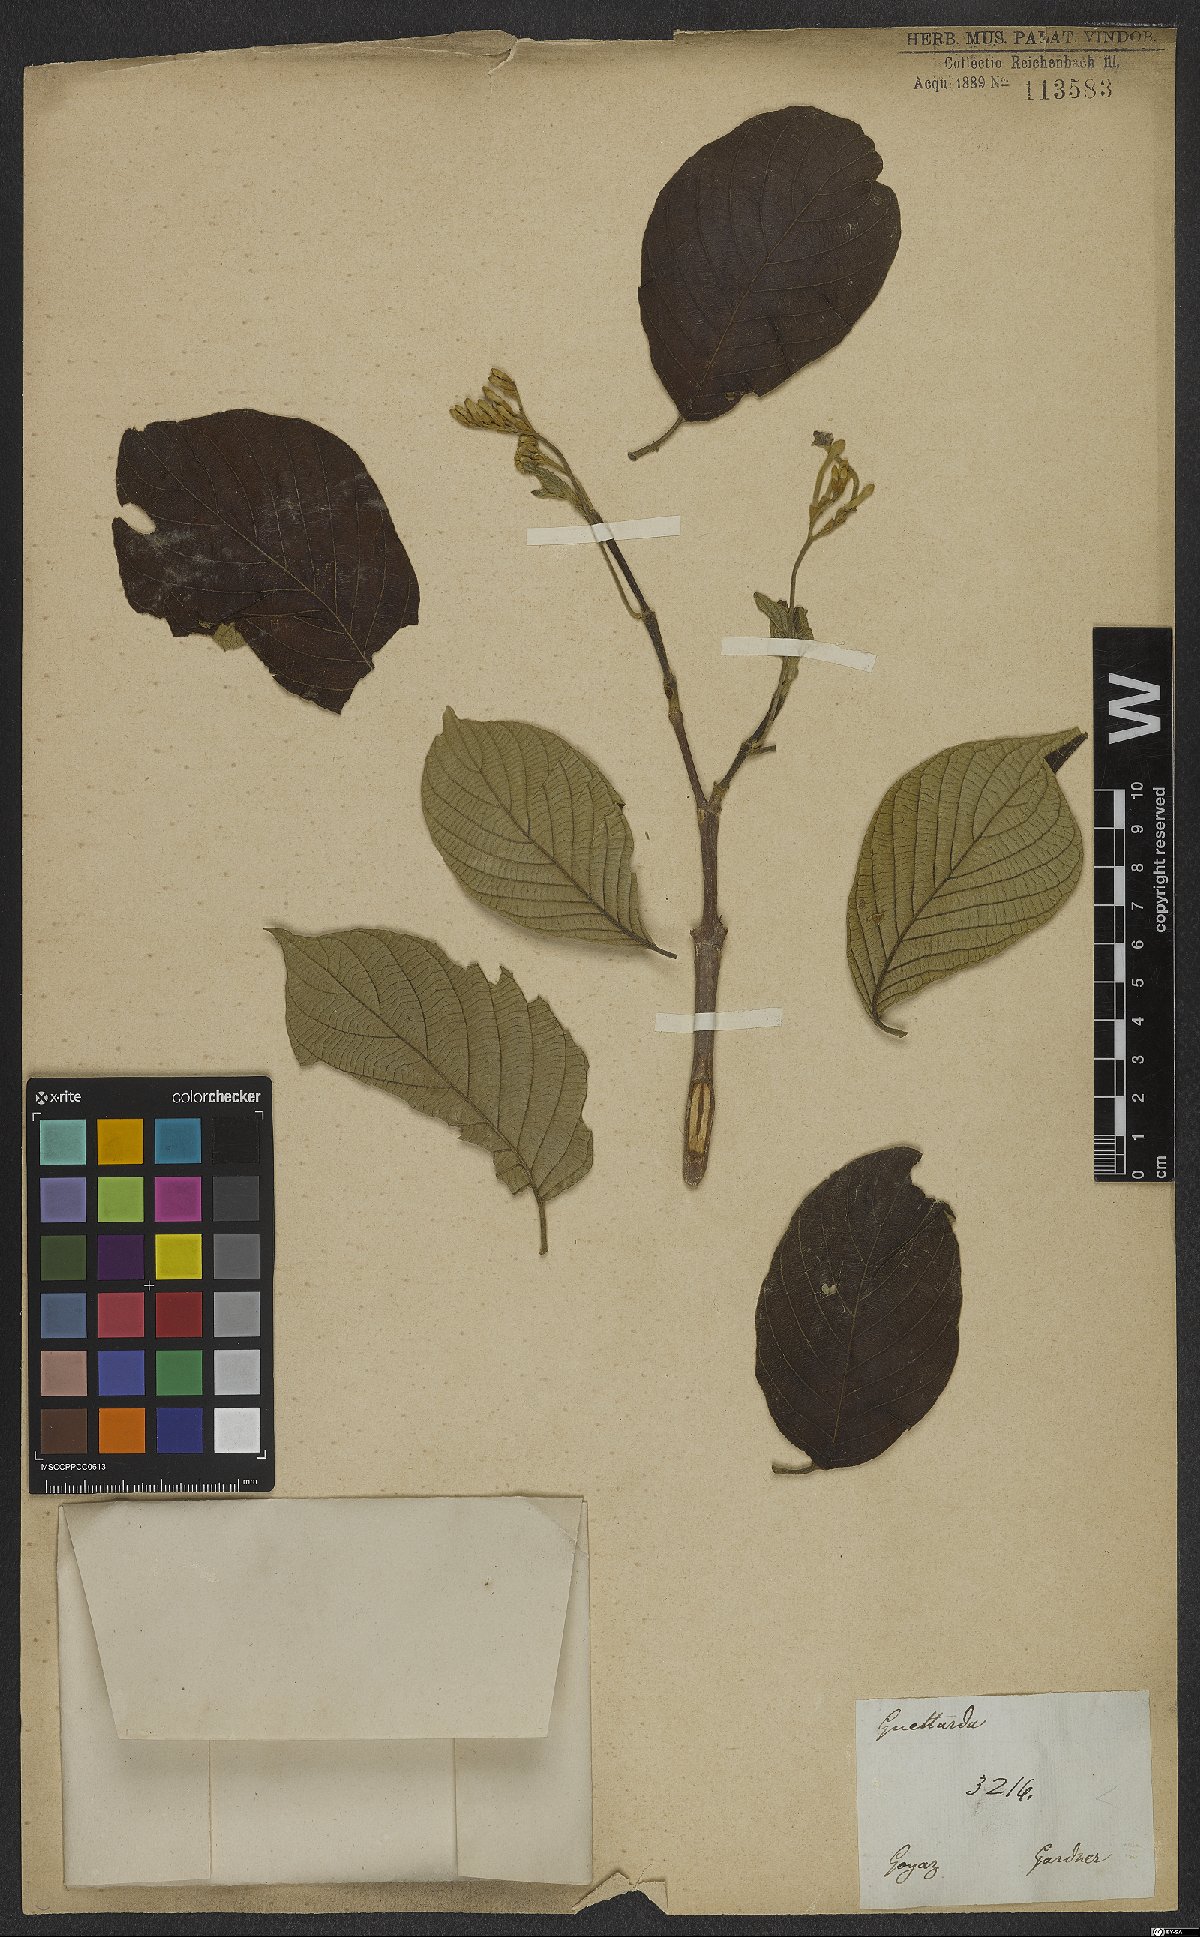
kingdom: Plantae
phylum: Tracheophyta
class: Magnoliopsida
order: Gentianales
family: Rubiaceae
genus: Guettarda
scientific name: Guettarda
